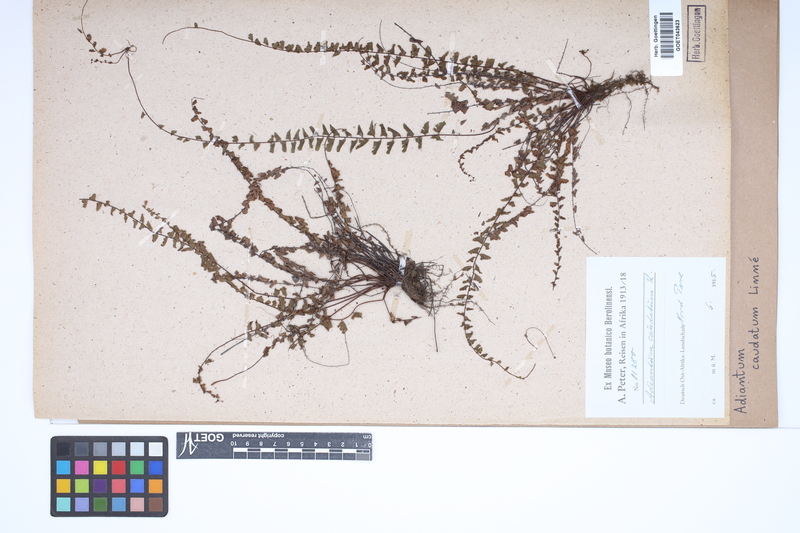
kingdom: Plantae
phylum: Tracheophyta
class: Polypodiopsida
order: Polypodiales
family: Pteridaceae
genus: Adiantum
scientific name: Adiantum caudatum
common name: Tailed maidenhair
